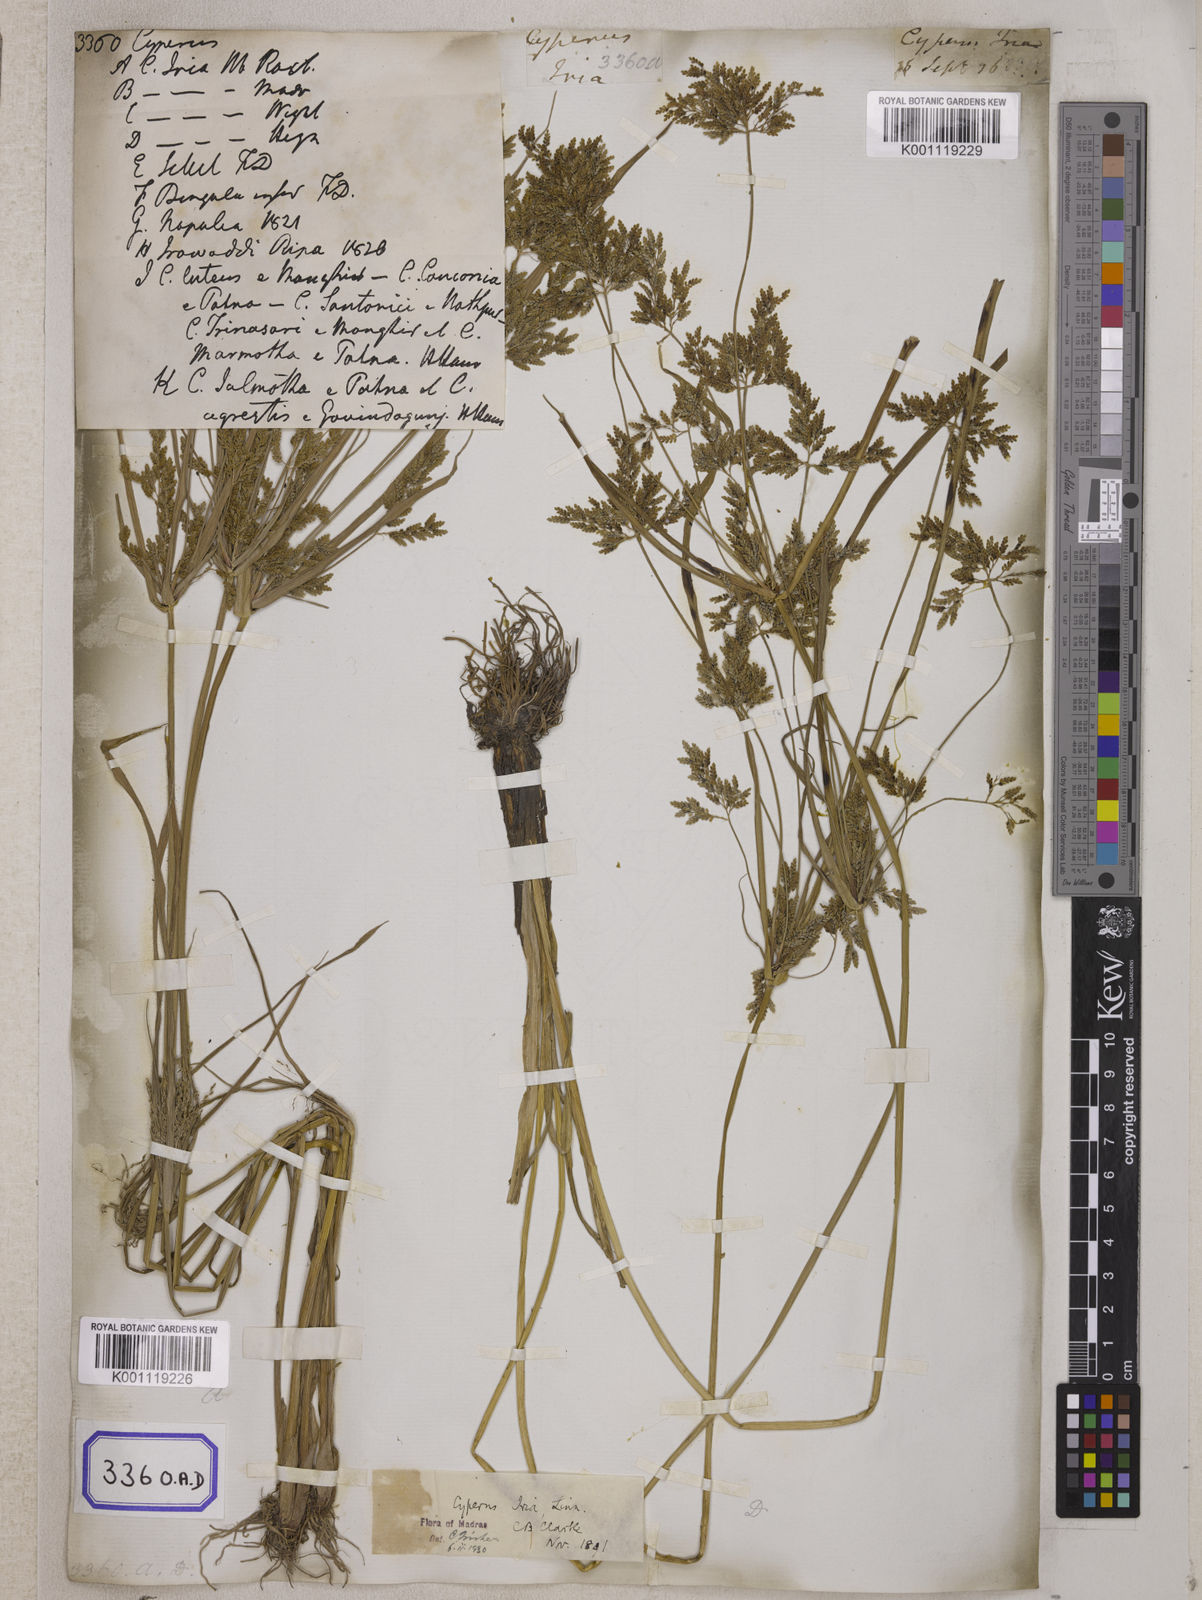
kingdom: Plantae
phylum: Tracheophyta
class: Liliopsida
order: Poales
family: Cyperaceae
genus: Cyperus
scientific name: Cyperus
